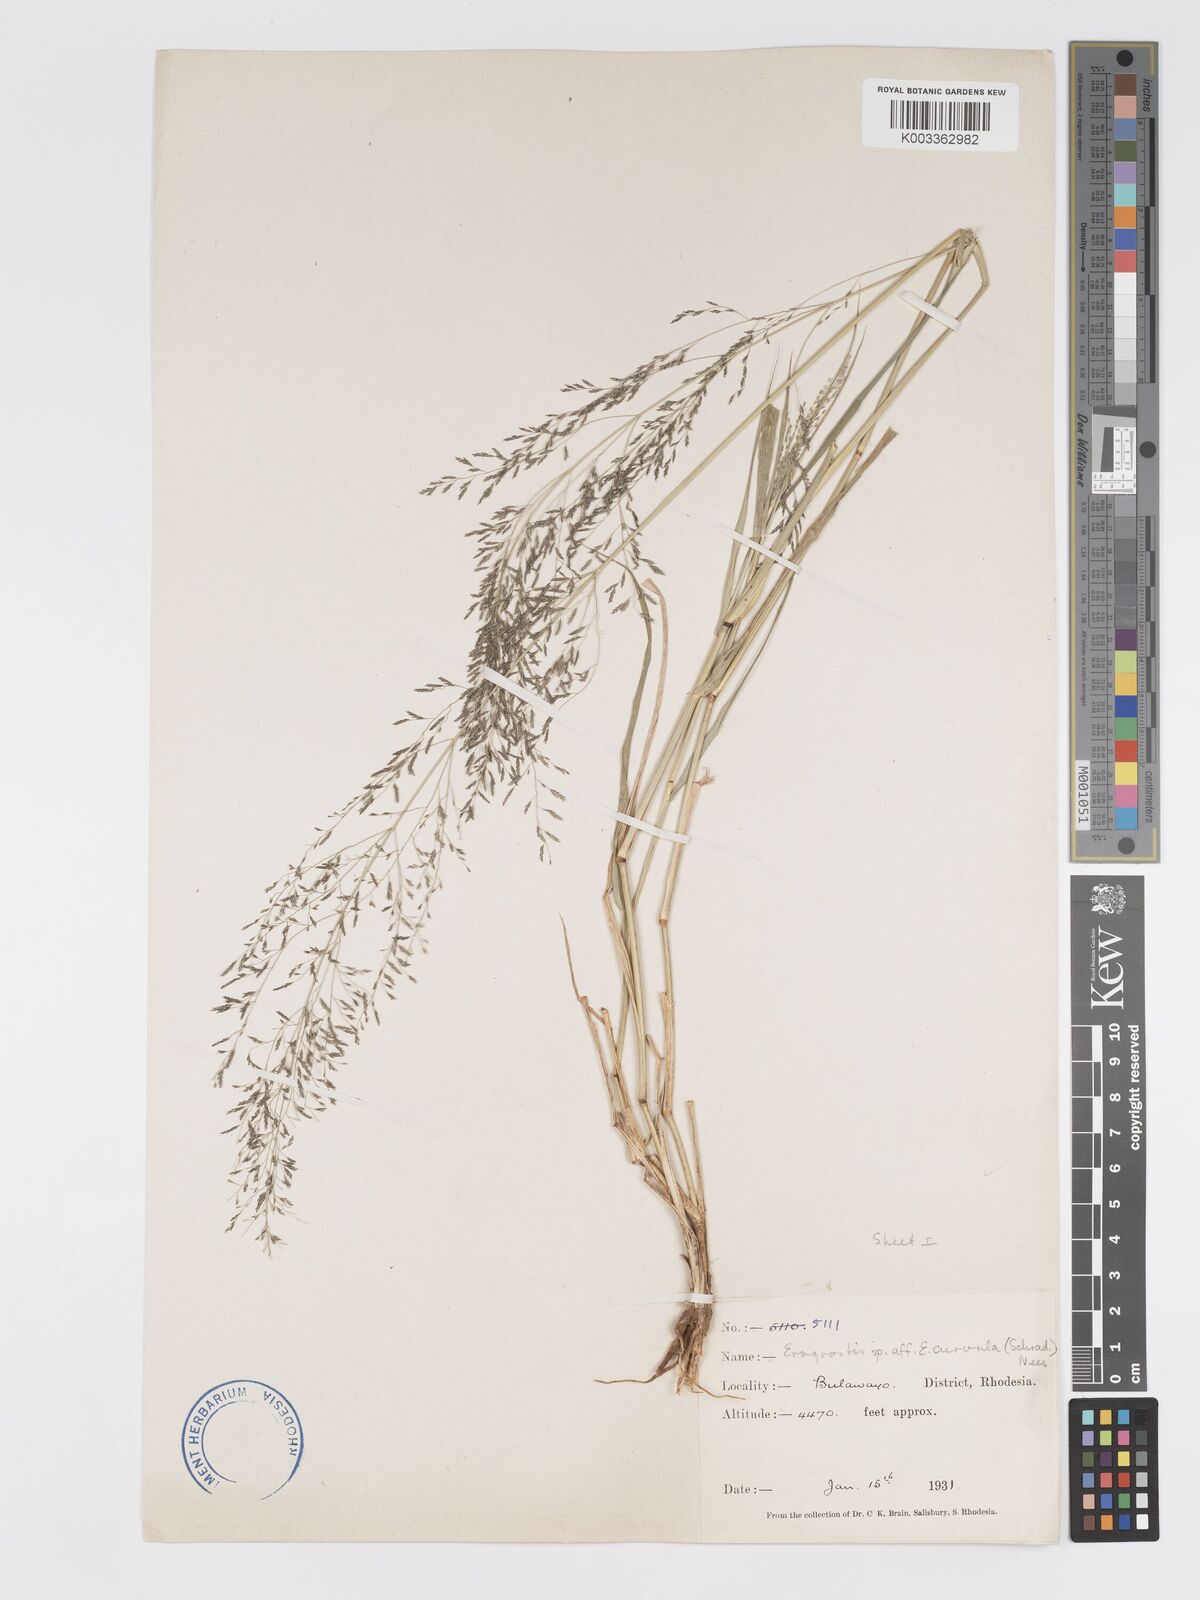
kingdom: Plantae
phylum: Tracheophyta
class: Liliopsida
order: Poales
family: Poaceae
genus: Eragrostis
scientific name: Eragrostis cylindriflora
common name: Cylinderflower lovegrass
